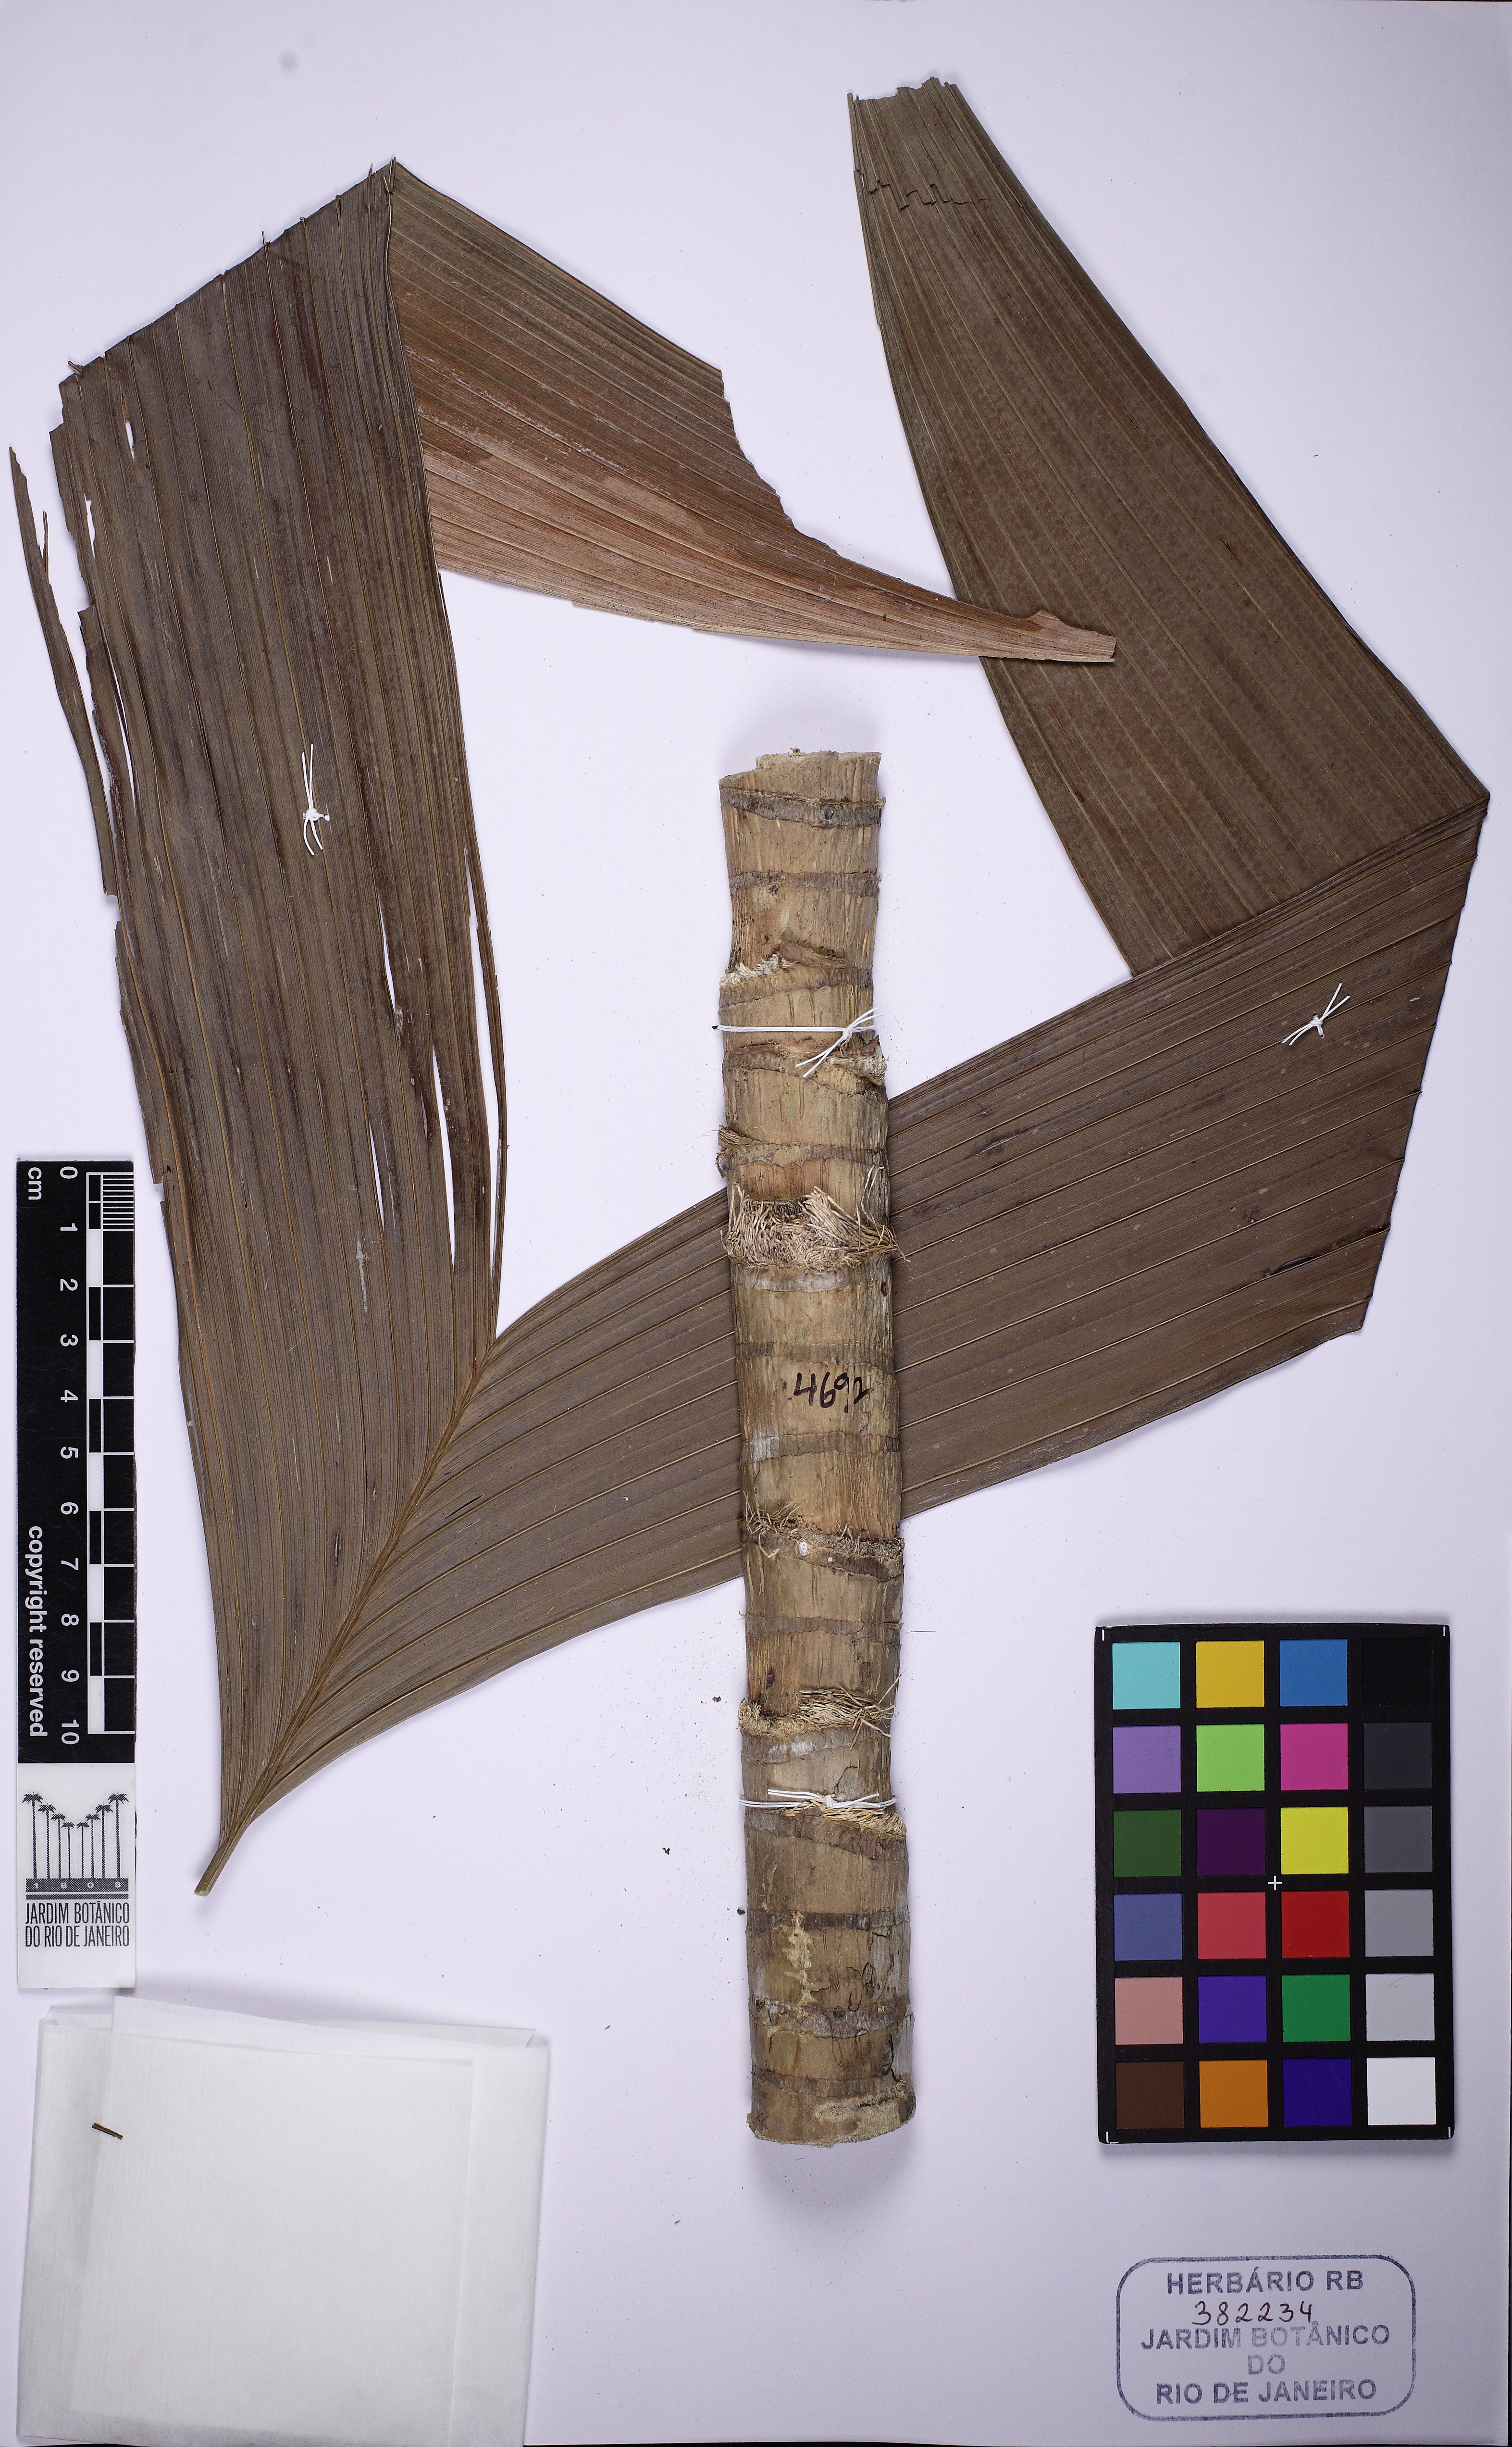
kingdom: Plantae
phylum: Tracheophyta
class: Liliopsida
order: Arecales
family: Arecaceae
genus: Geonoma
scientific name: Geonoma pohliana
